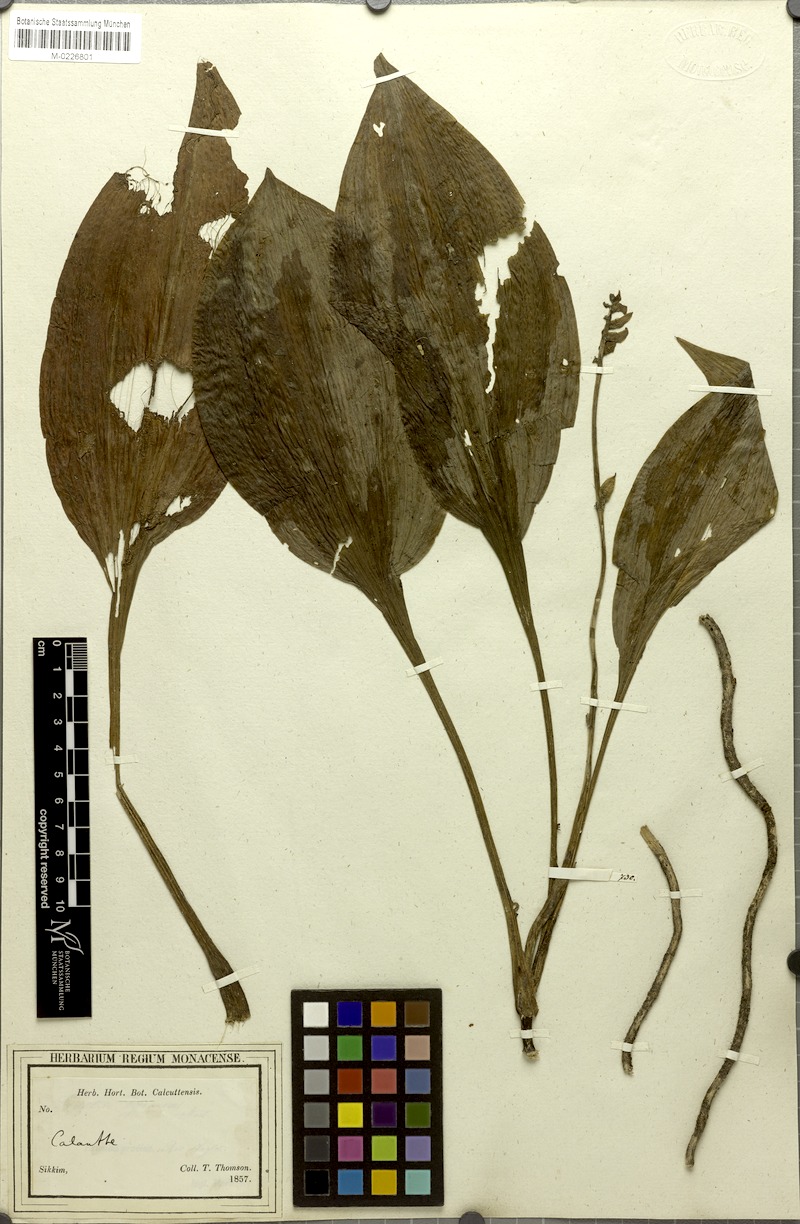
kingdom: Plantae
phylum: Tracheophyta
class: Liliopsida
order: Asparagales
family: Orchidaceae
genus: Calanthe
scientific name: Calanthe obcordata
